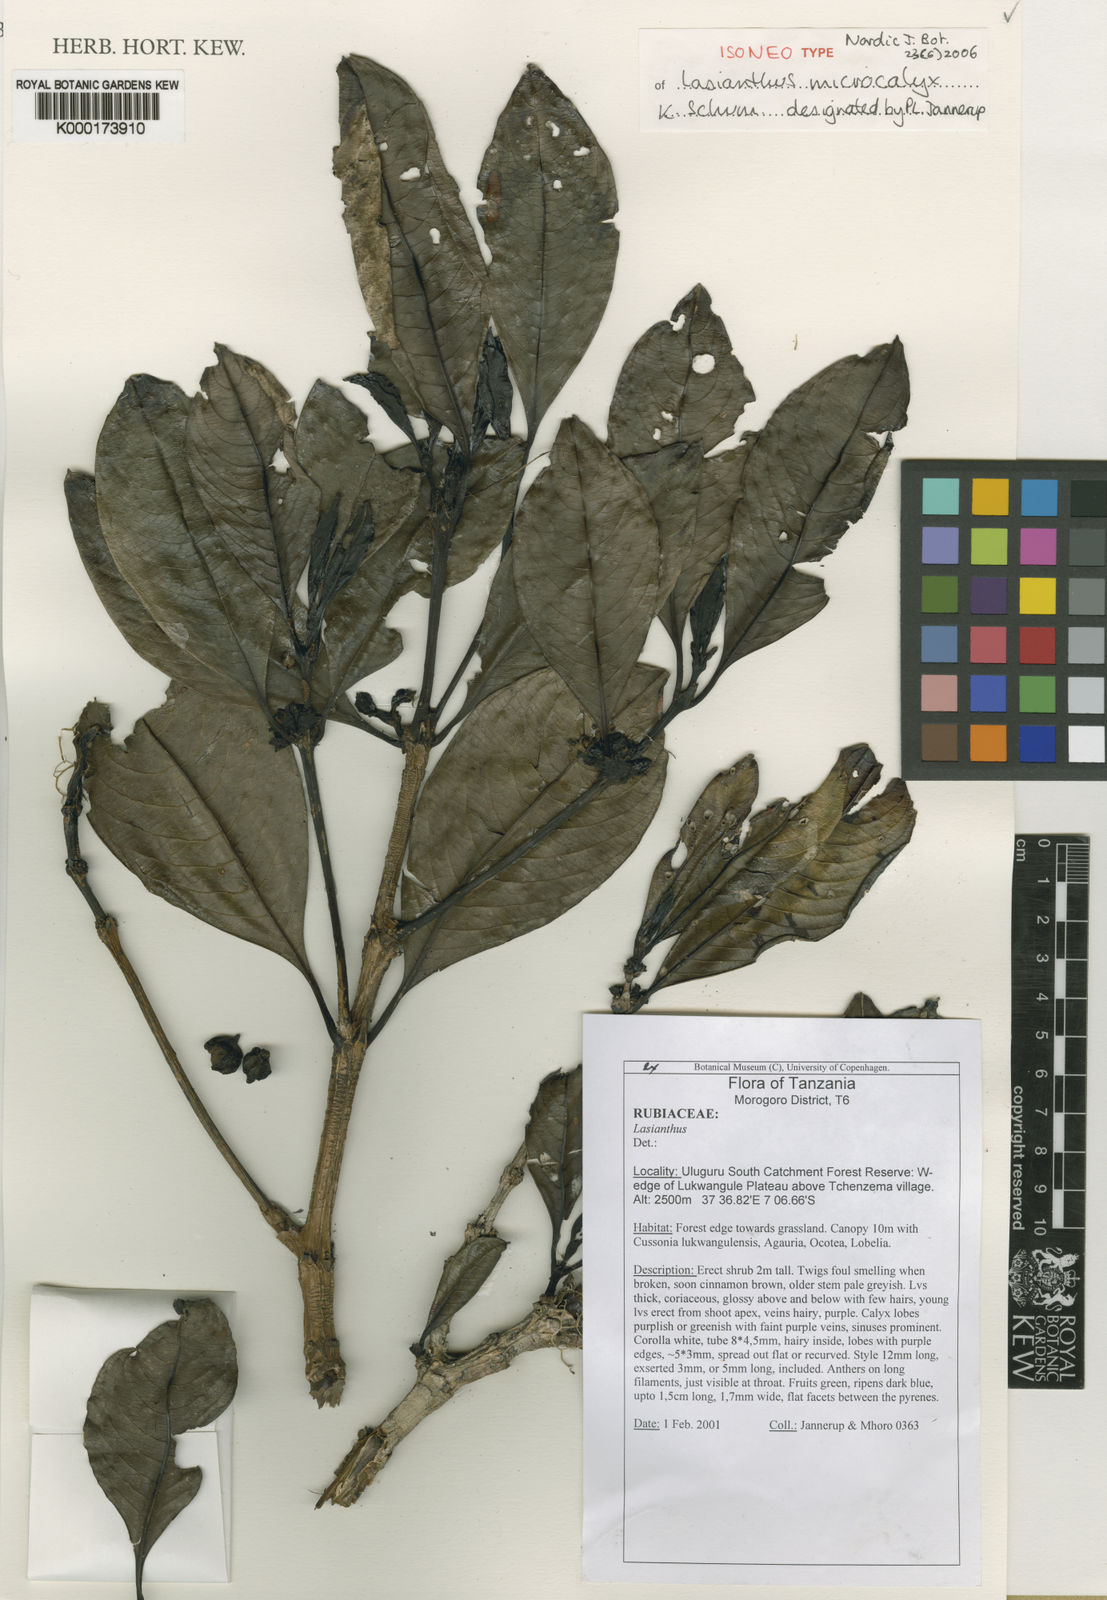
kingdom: Plantae
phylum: Tracheophyta
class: Magnoliopsida
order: Gentianales
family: Rubiaceae
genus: Lasianthus
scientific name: Lasianthus microcalyx
